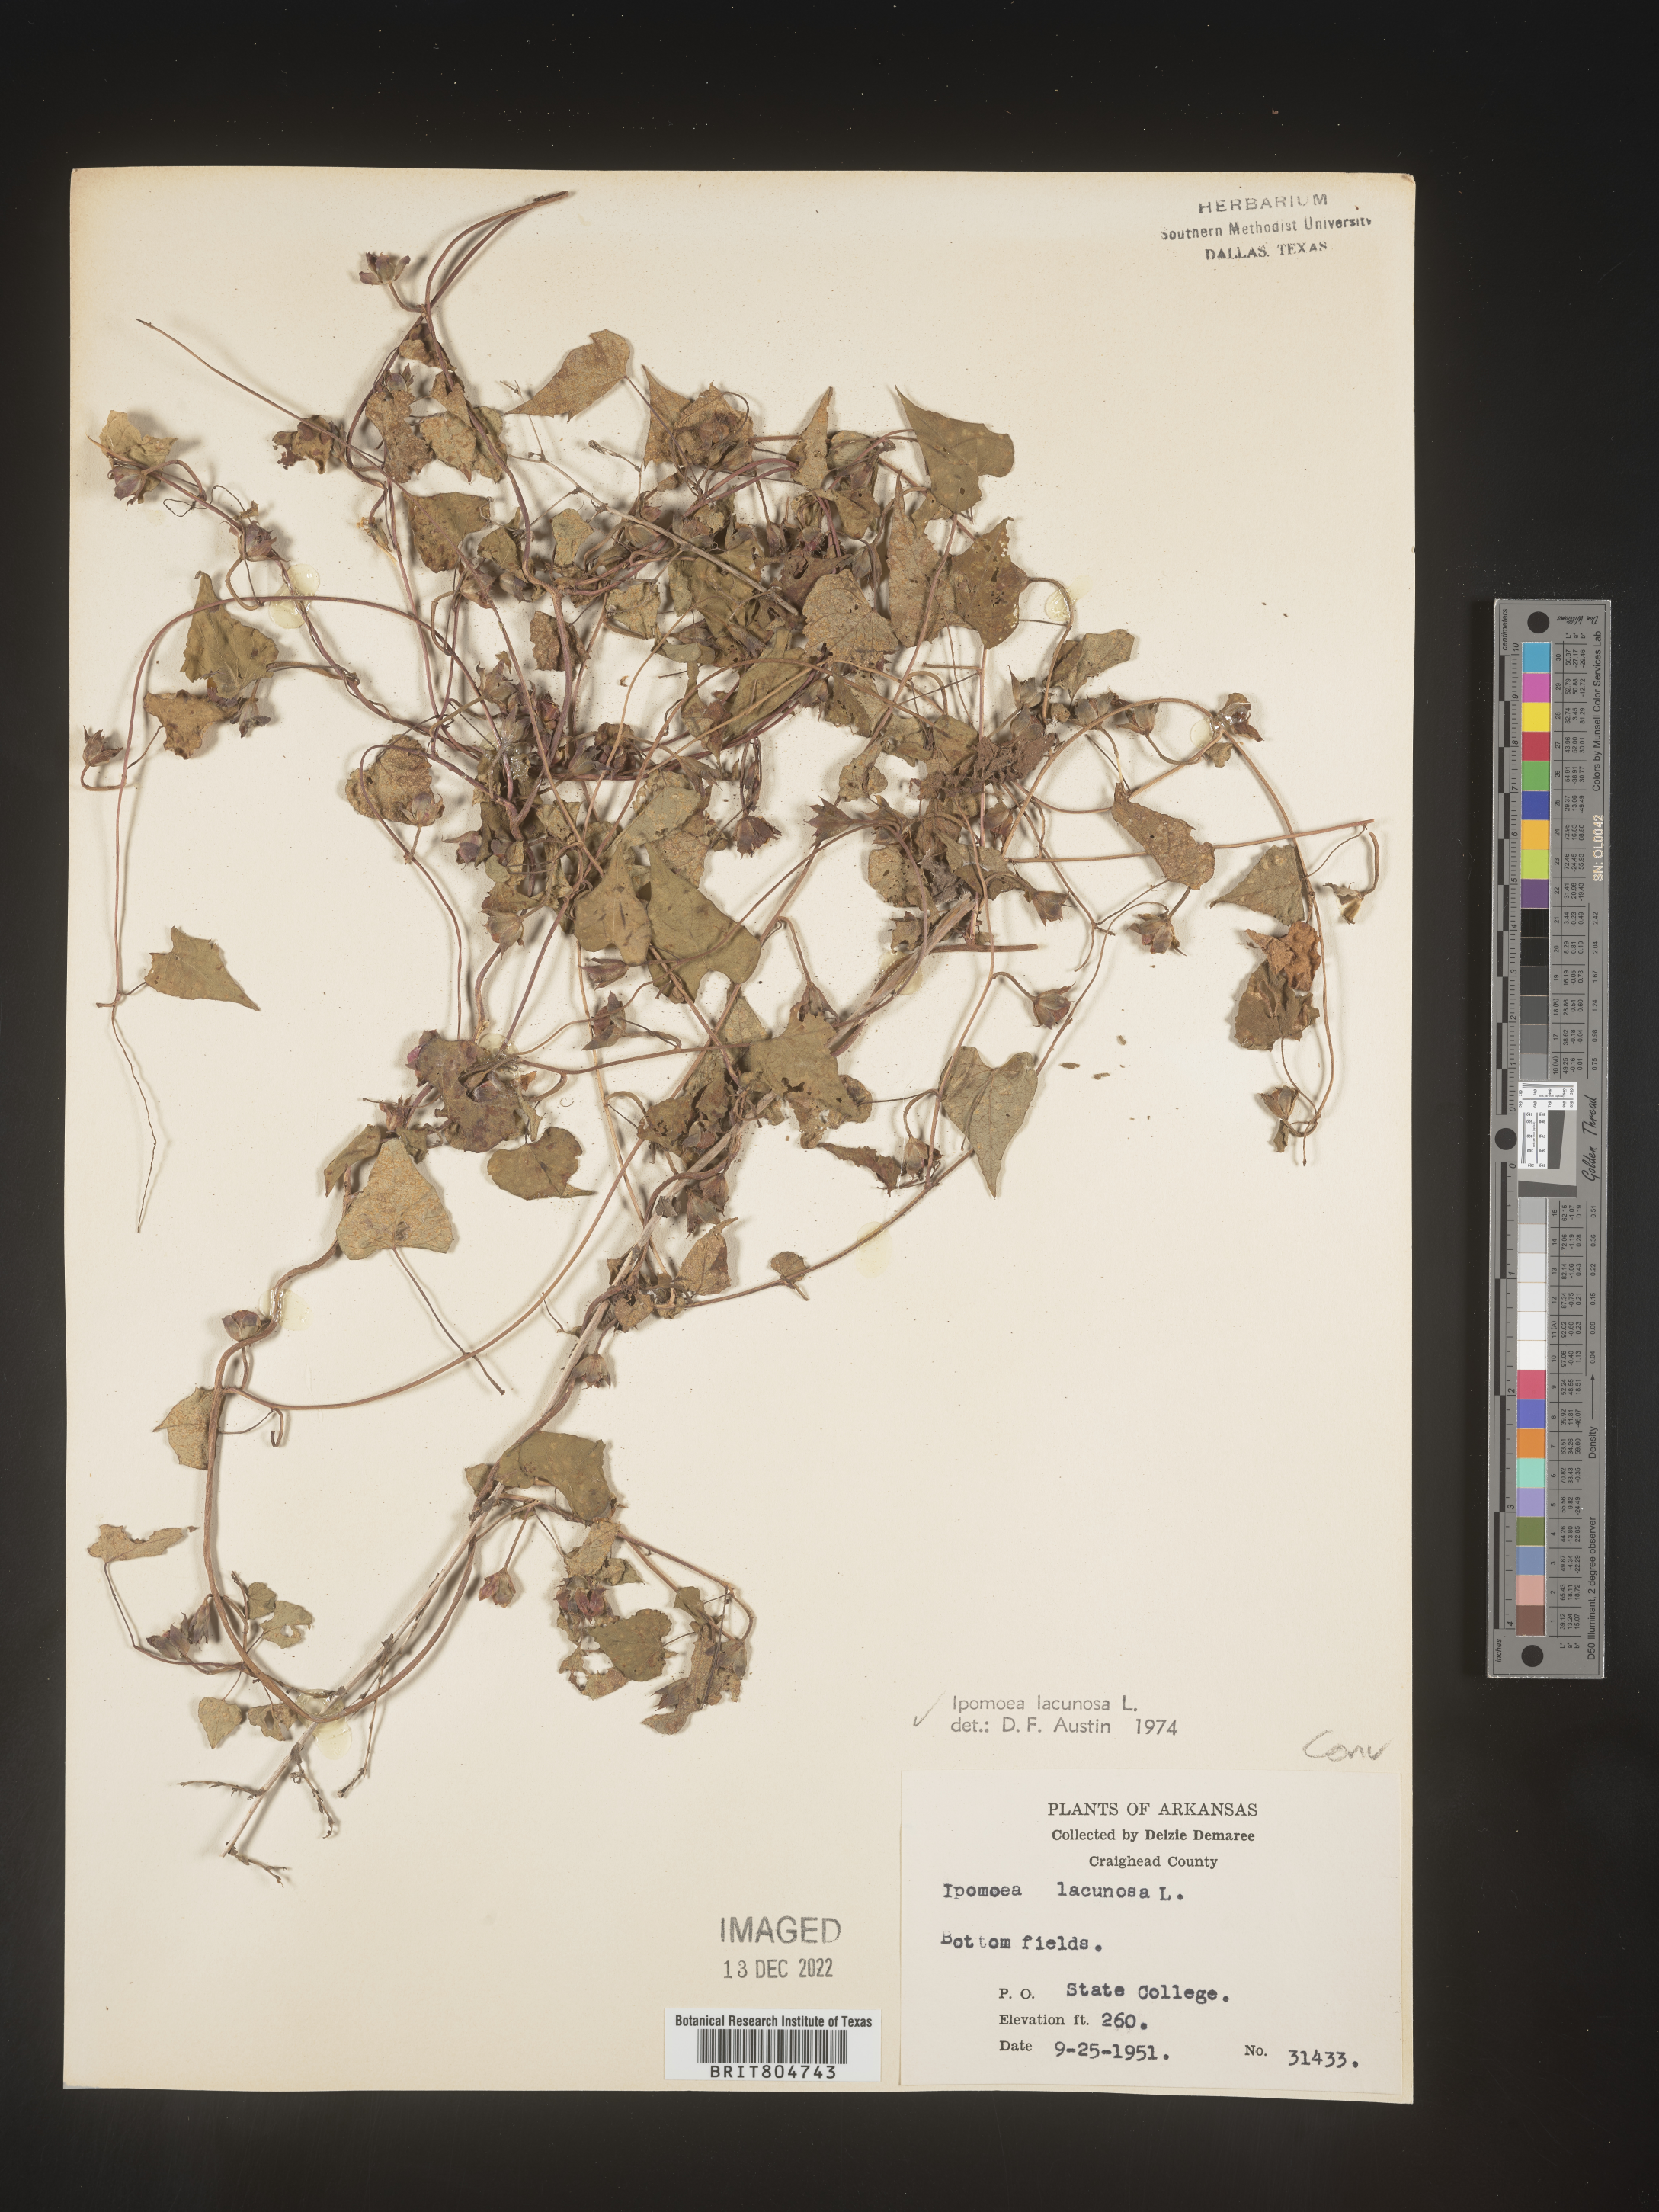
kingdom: Plantae
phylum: Tracheophyta
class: Magnoliopsida
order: Solanales
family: Convolvulaceae
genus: Ipomoea
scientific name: Ipomoea lacunosa
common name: White morning-glory
